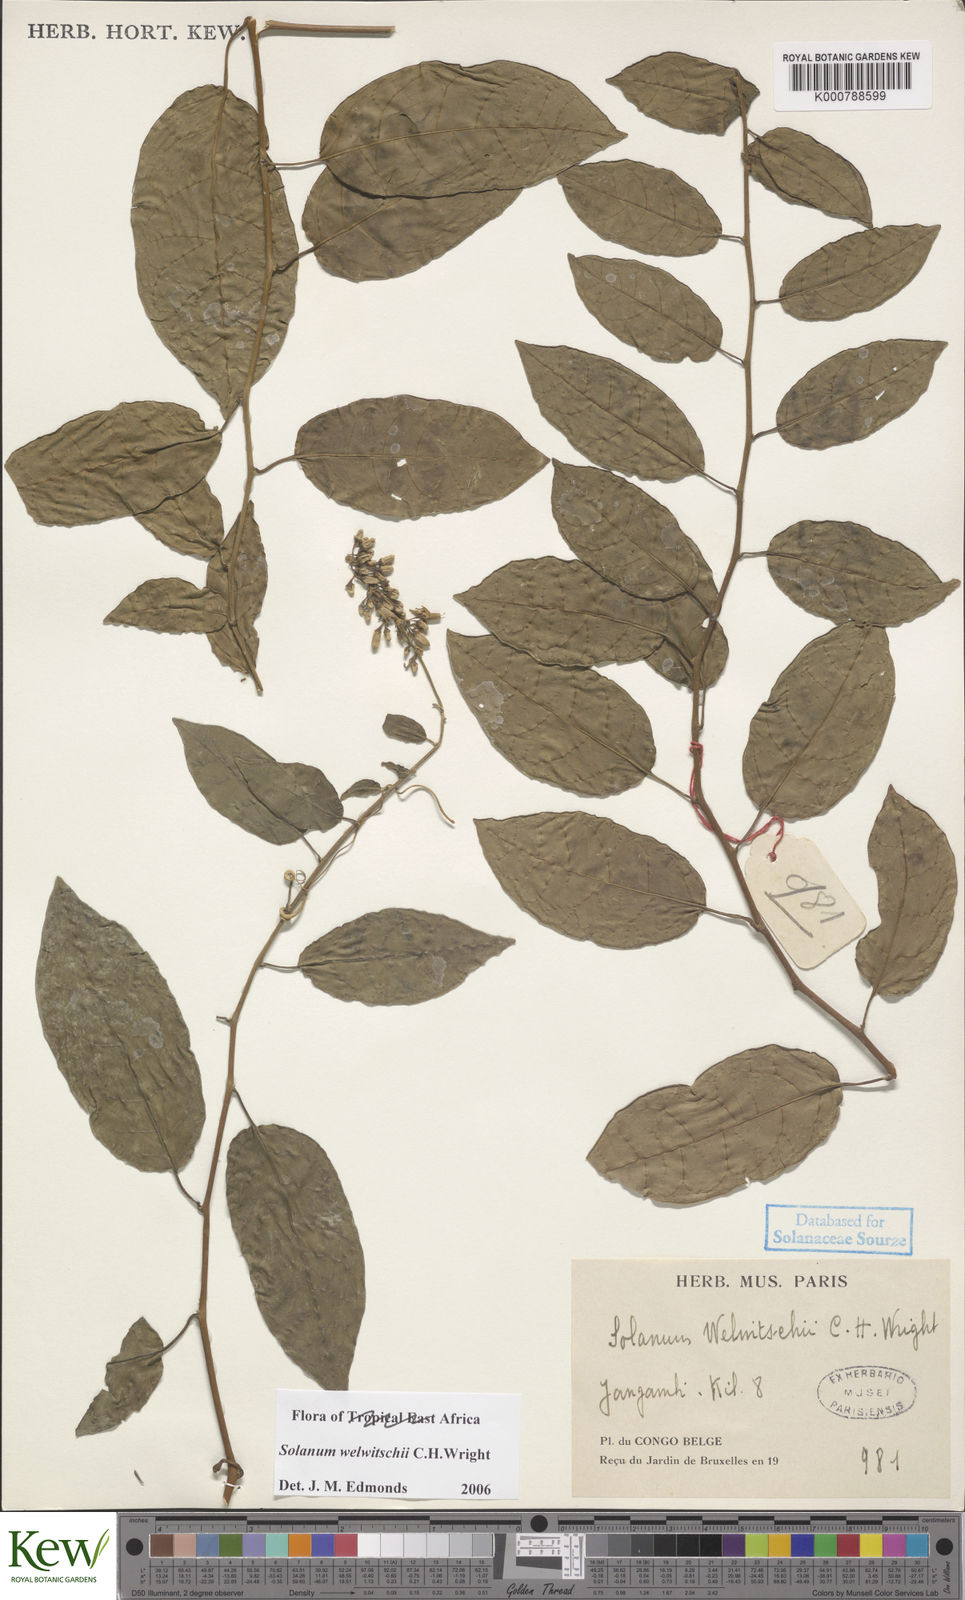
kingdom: Plantae
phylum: Tracheophyta
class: Magnoliopsida
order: Solanales
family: Solanaceae
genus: Solanum
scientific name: Solanum terminale
